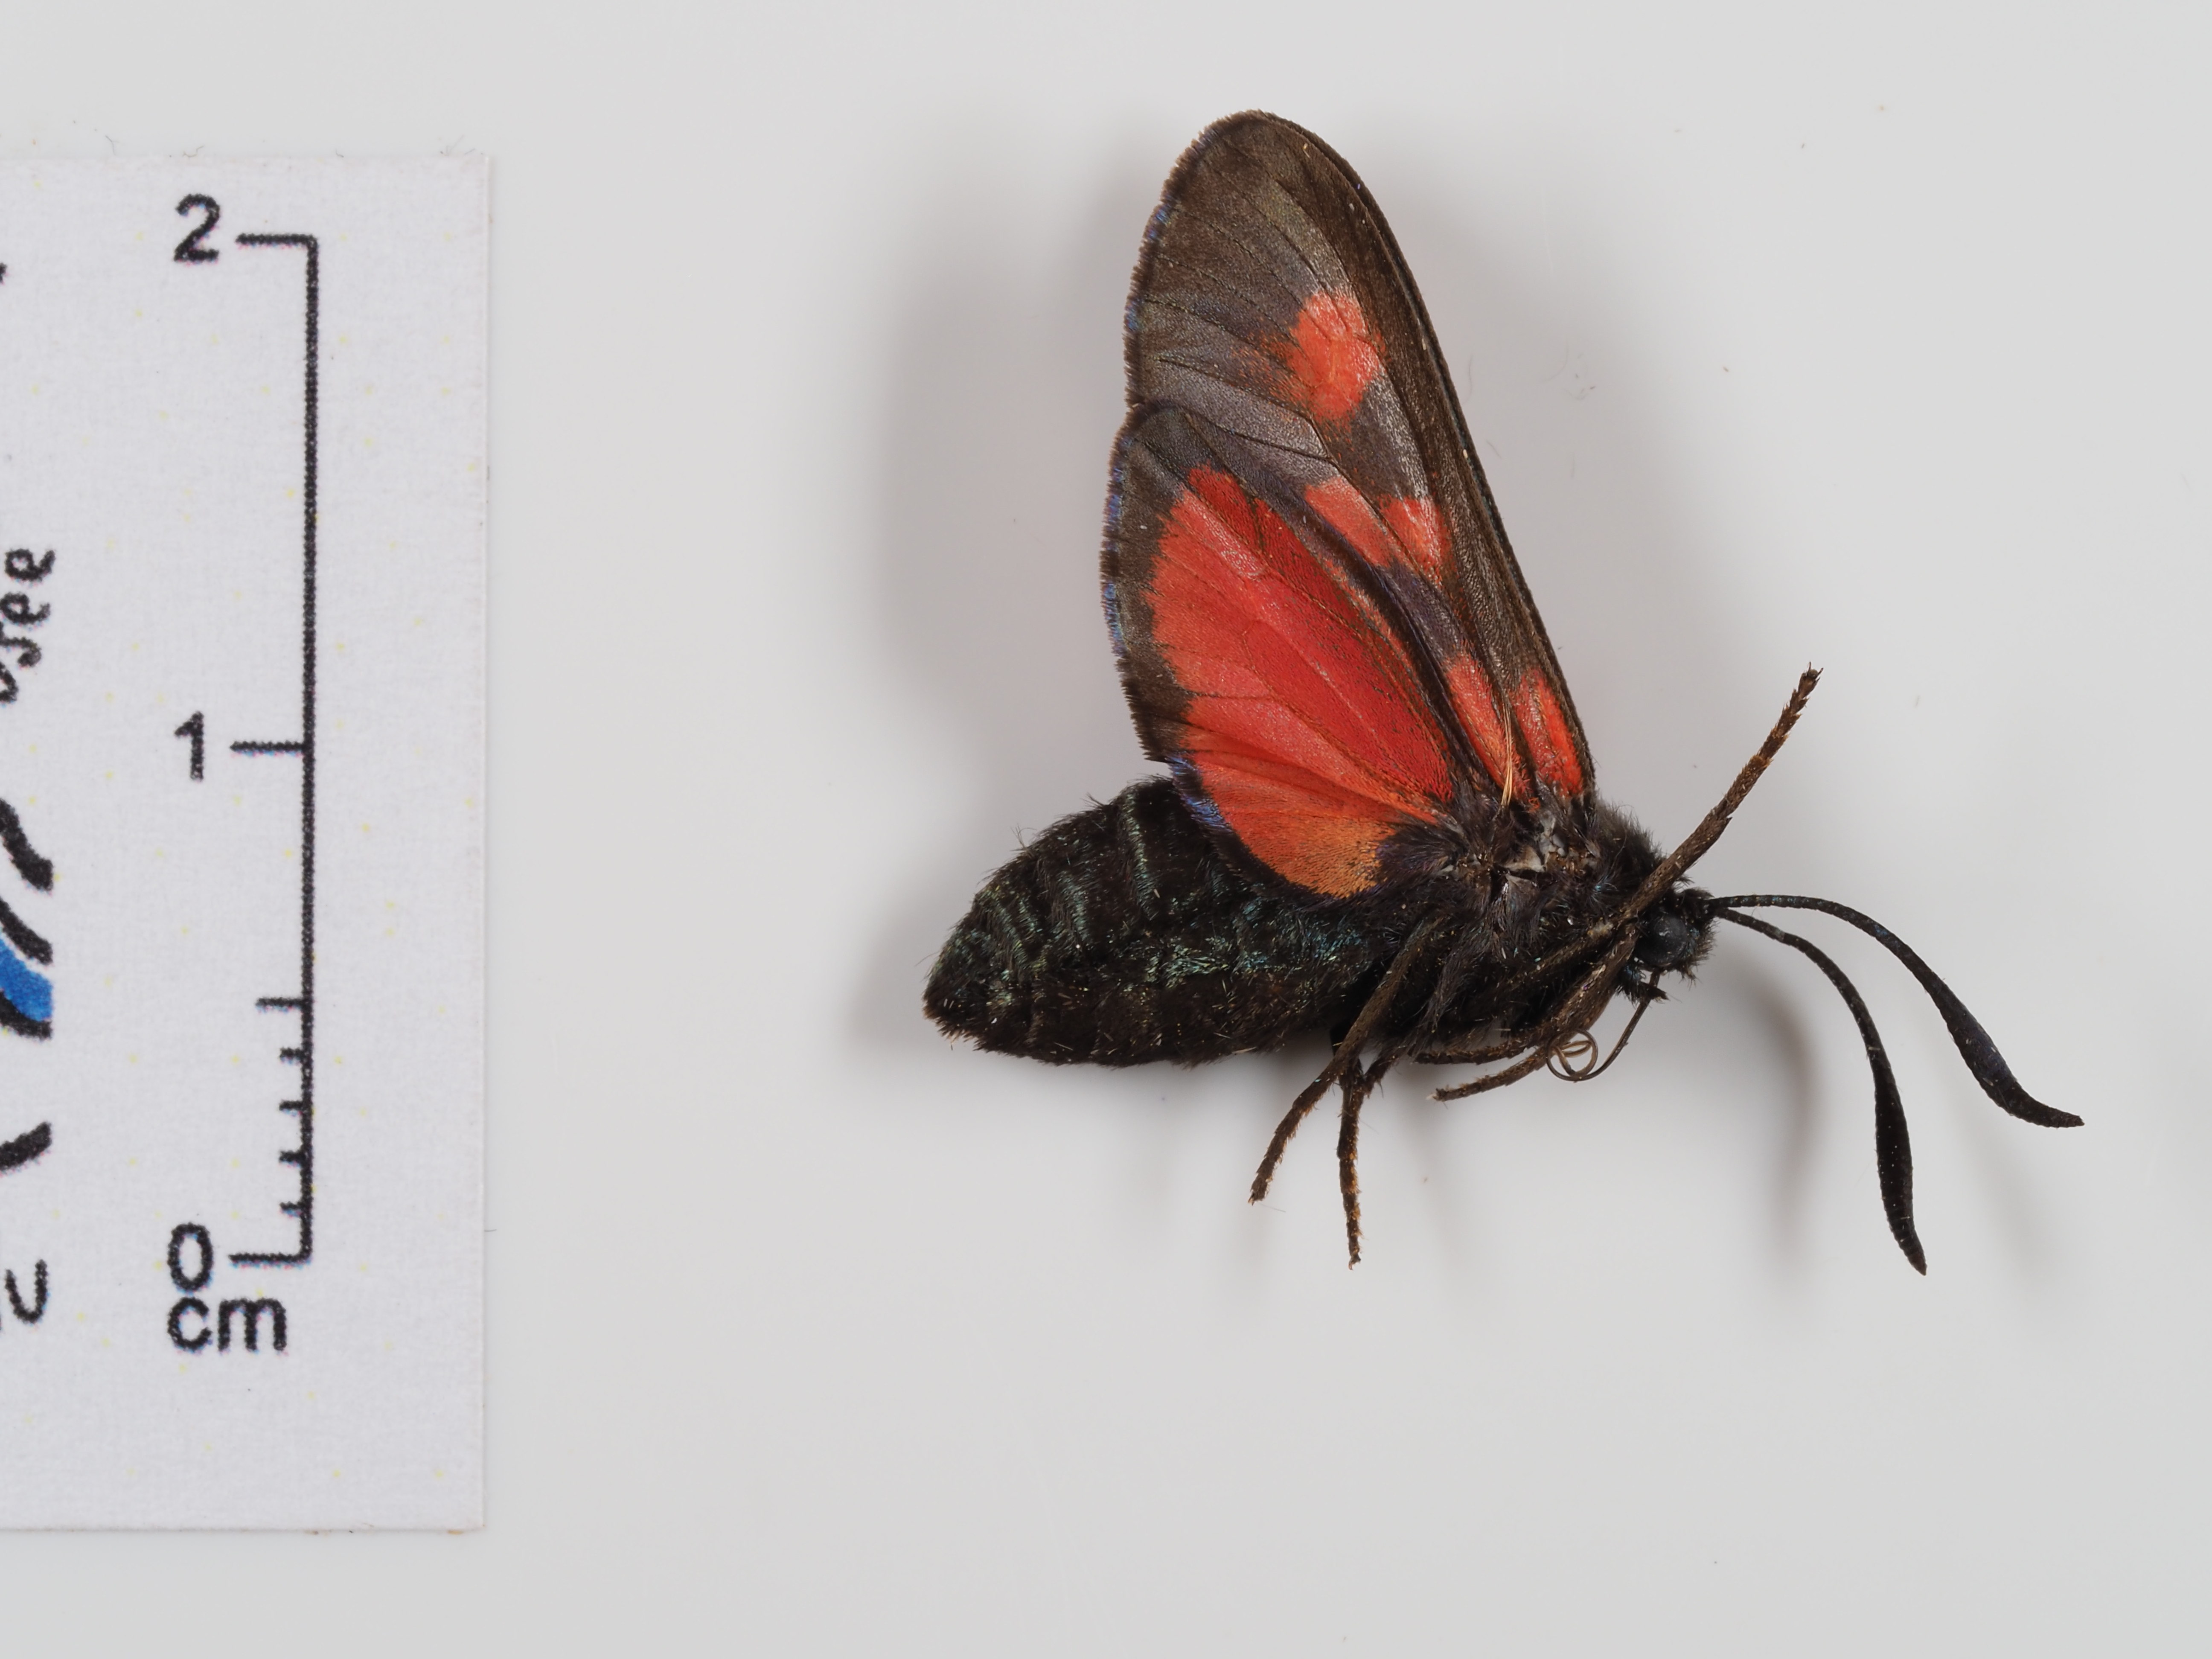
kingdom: Animalia
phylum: Arthropoda
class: Insecta
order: Lepidoptera
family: Zygaenidae
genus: Zygaena
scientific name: Zygaena trifolii
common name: Five-spot burnet
